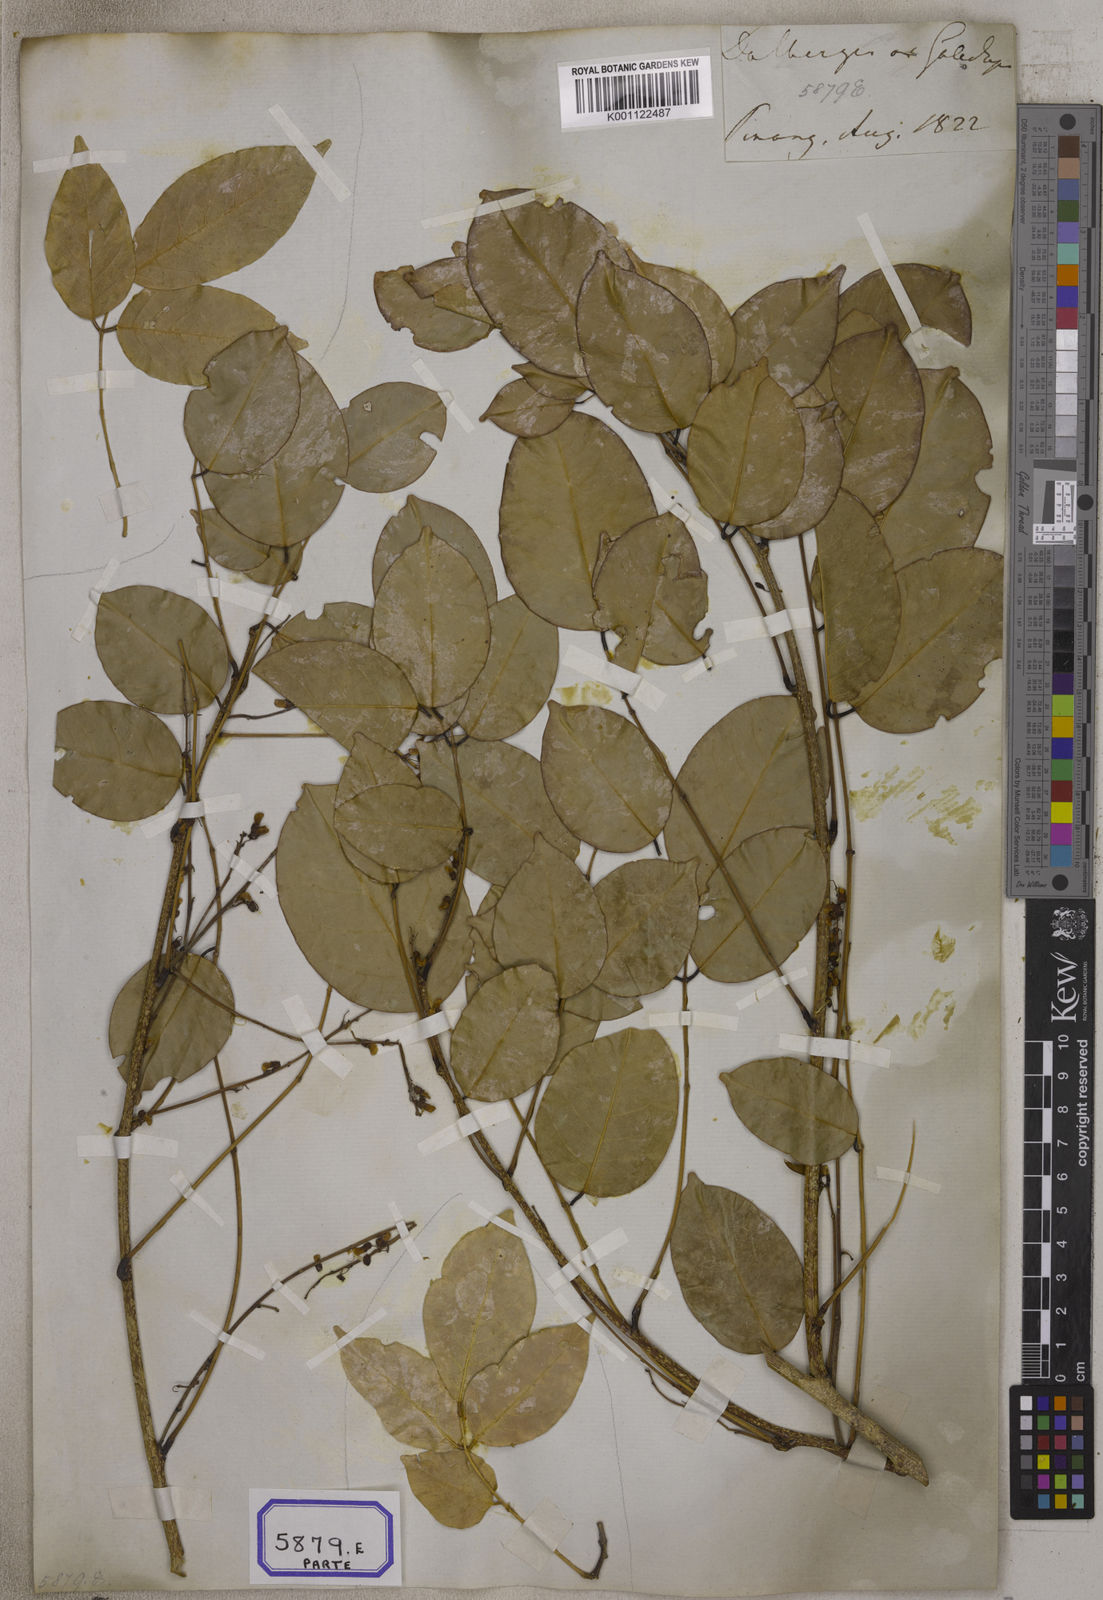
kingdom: Plantae
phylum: Tracheophyta
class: Magnoliopsida
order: Fabales
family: Fabaceae
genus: Derris
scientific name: Derris trifoliata
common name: Three-leaf derris
